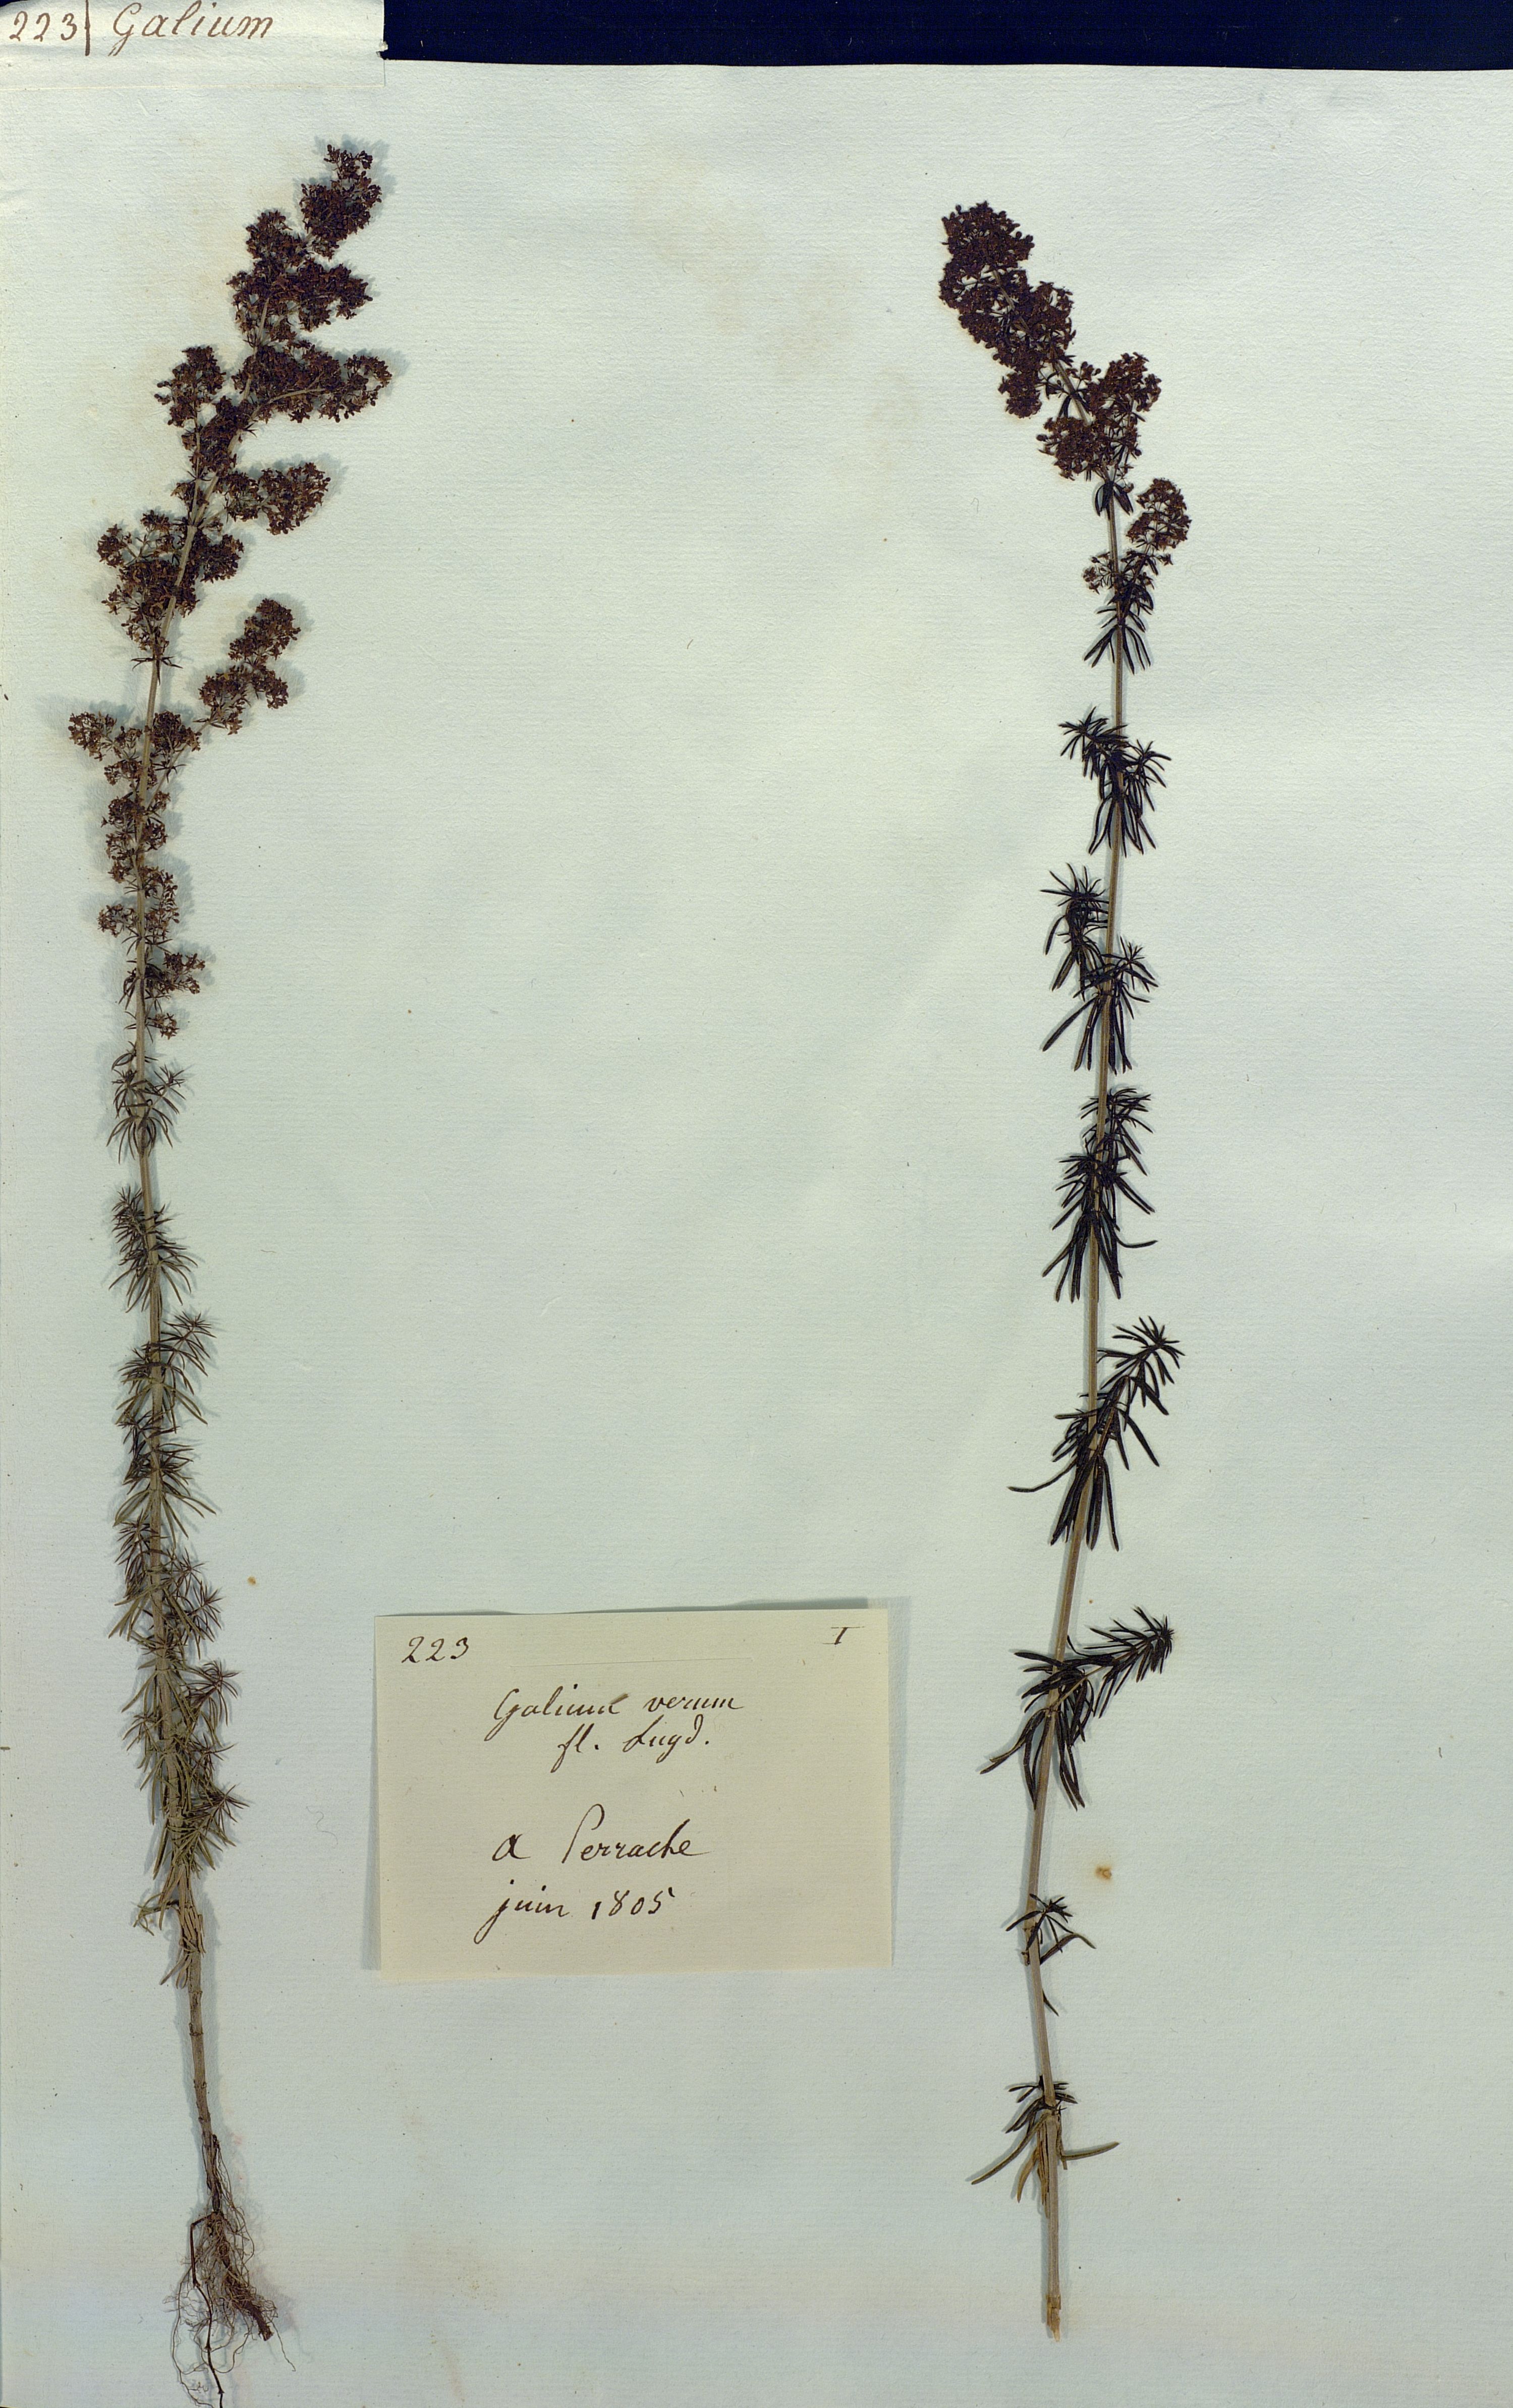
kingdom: Plantae
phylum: Tracheophyta
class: Magnoliopsida
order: Gentianales
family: Rubiaceae
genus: Galium
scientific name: Galium verum
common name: Lady's bedstraw
